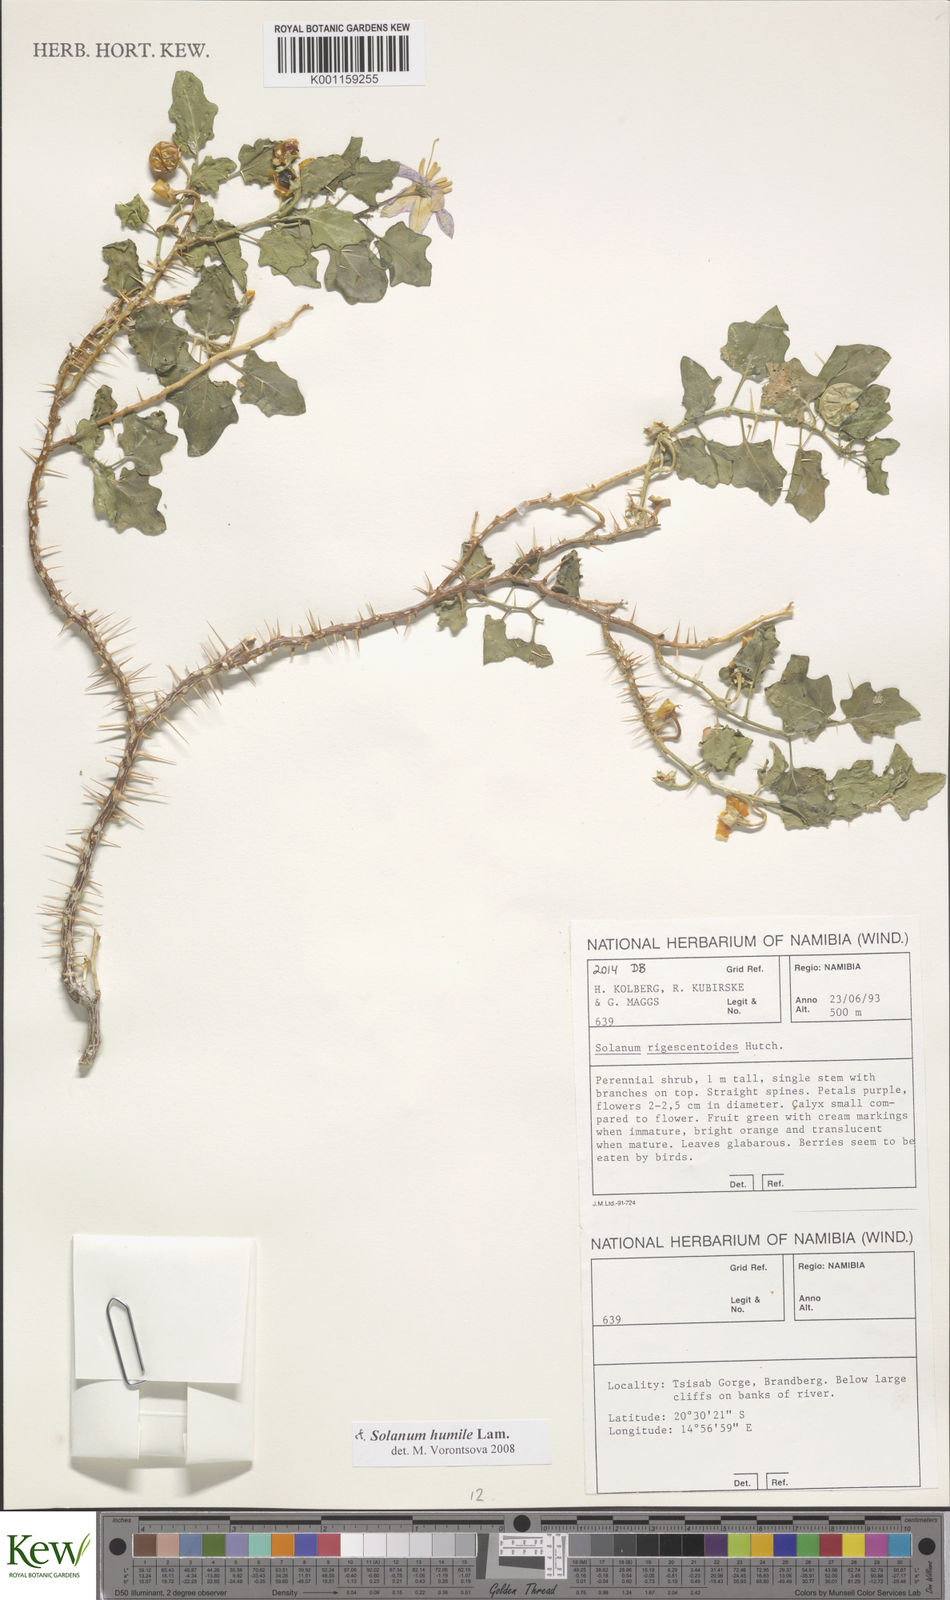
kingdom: Plantae
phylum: Tracheophyta
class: Magnoliopsida
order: Solanales
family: Solanaceae
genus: Solanum
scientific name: Solanum humile
